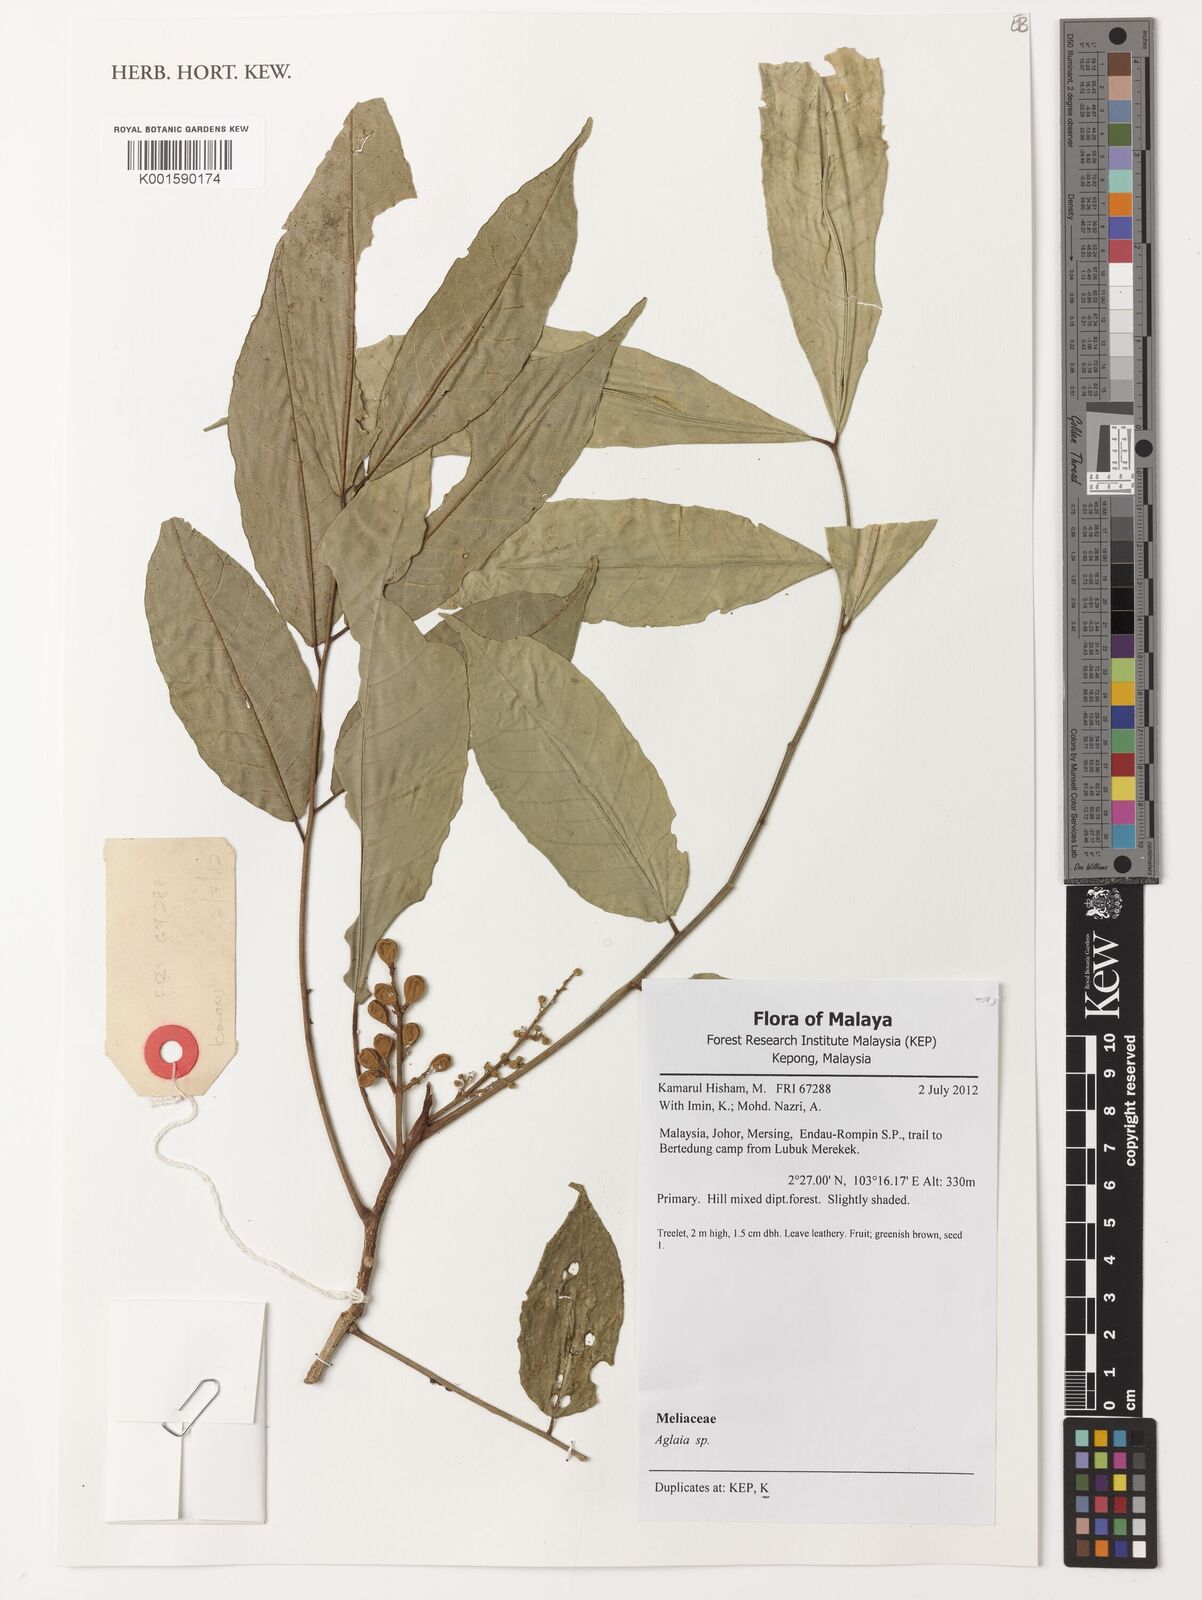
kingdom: Plantae
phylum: Tracheophyta
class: Magnoliopsida
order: Sapindales
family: Meliaceae
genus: Aglaia
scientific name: Aglaia
